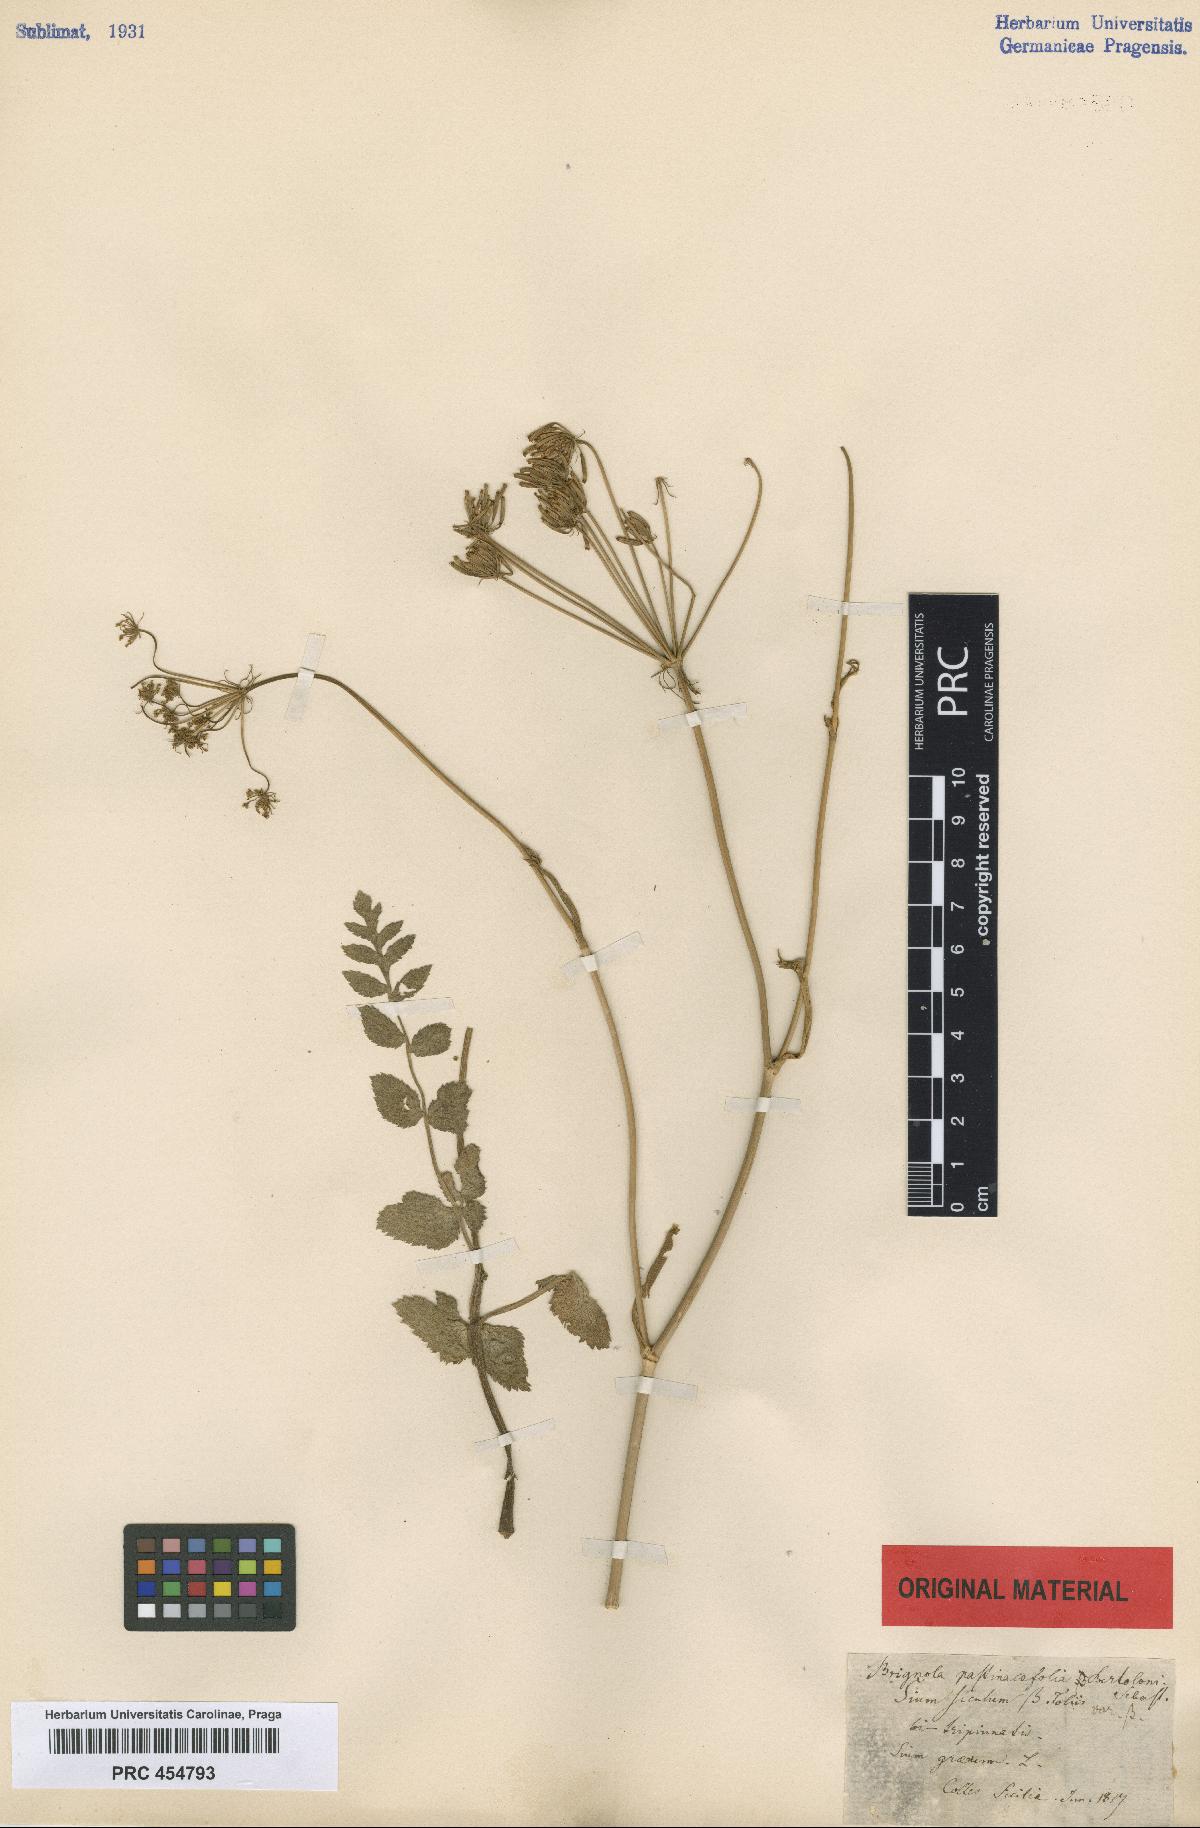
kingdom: Plantae
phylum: Tracheophyta
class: Magnoliopsida
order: Apiales
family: Apiaceae
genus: Kundmannia
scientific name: Kundmannia sicula
